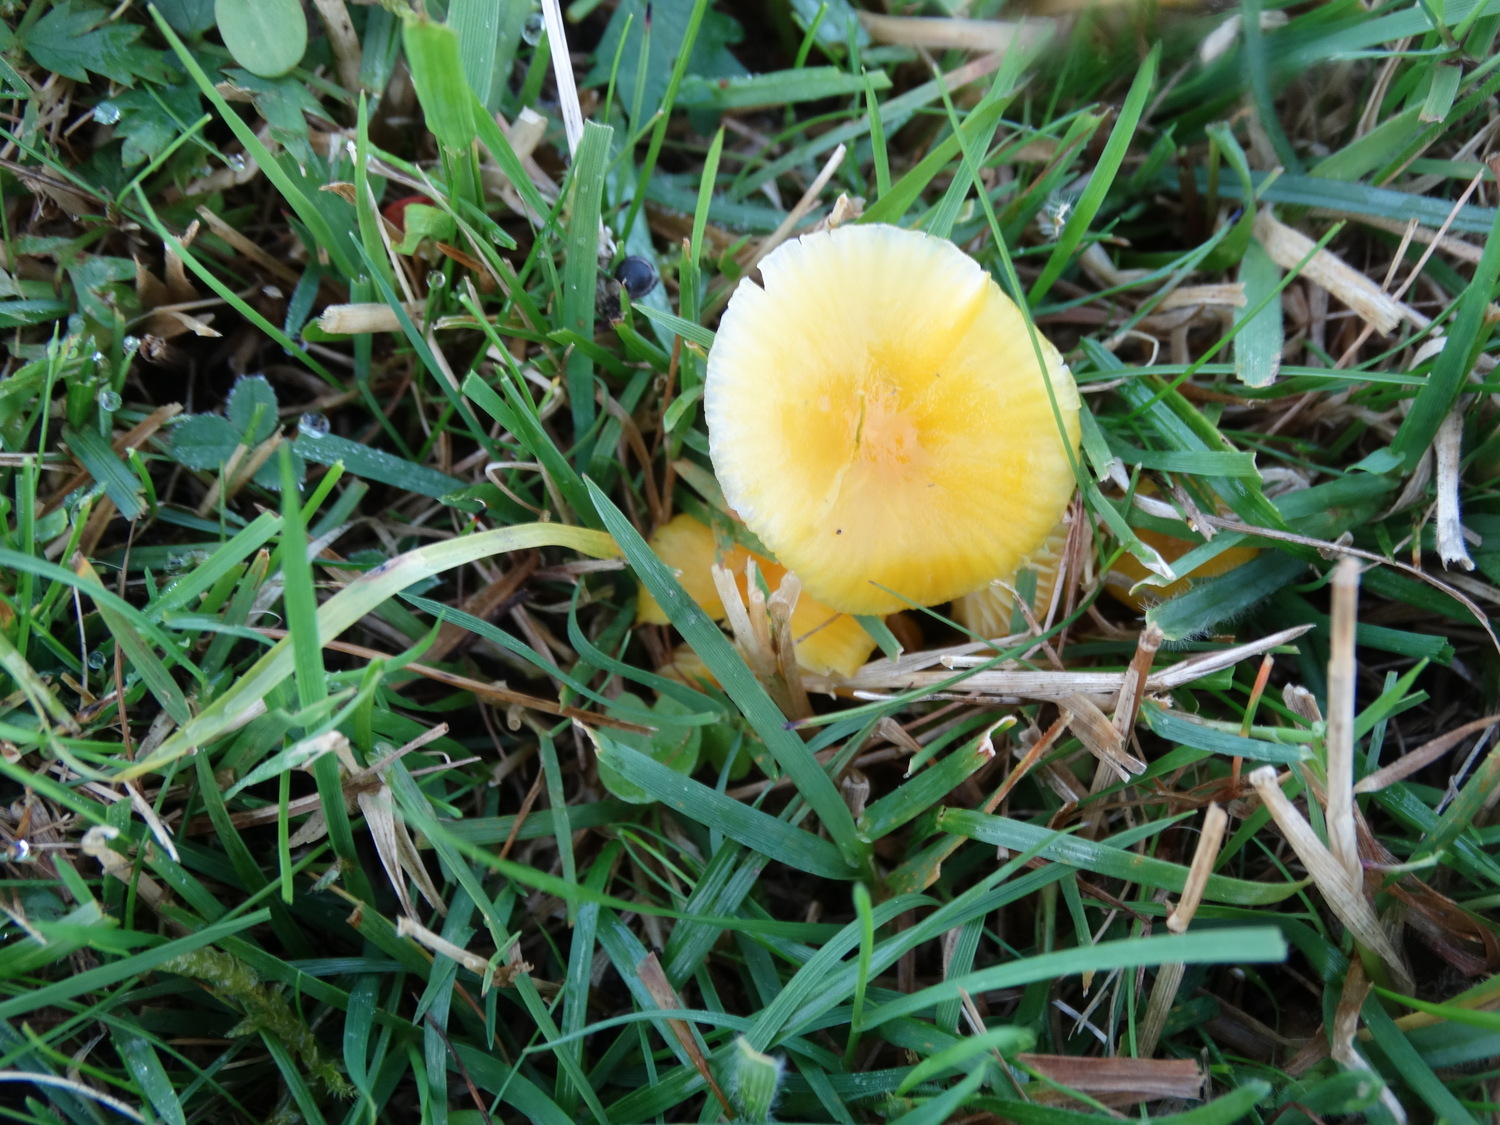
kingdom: Fungi
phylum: Basidiomycota
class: Agaricomycetes
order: Agaricales
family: Hygrophoraceae
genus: Hygrocybe
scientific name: Hygrocybe ceracea
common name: voksgul vokshat
